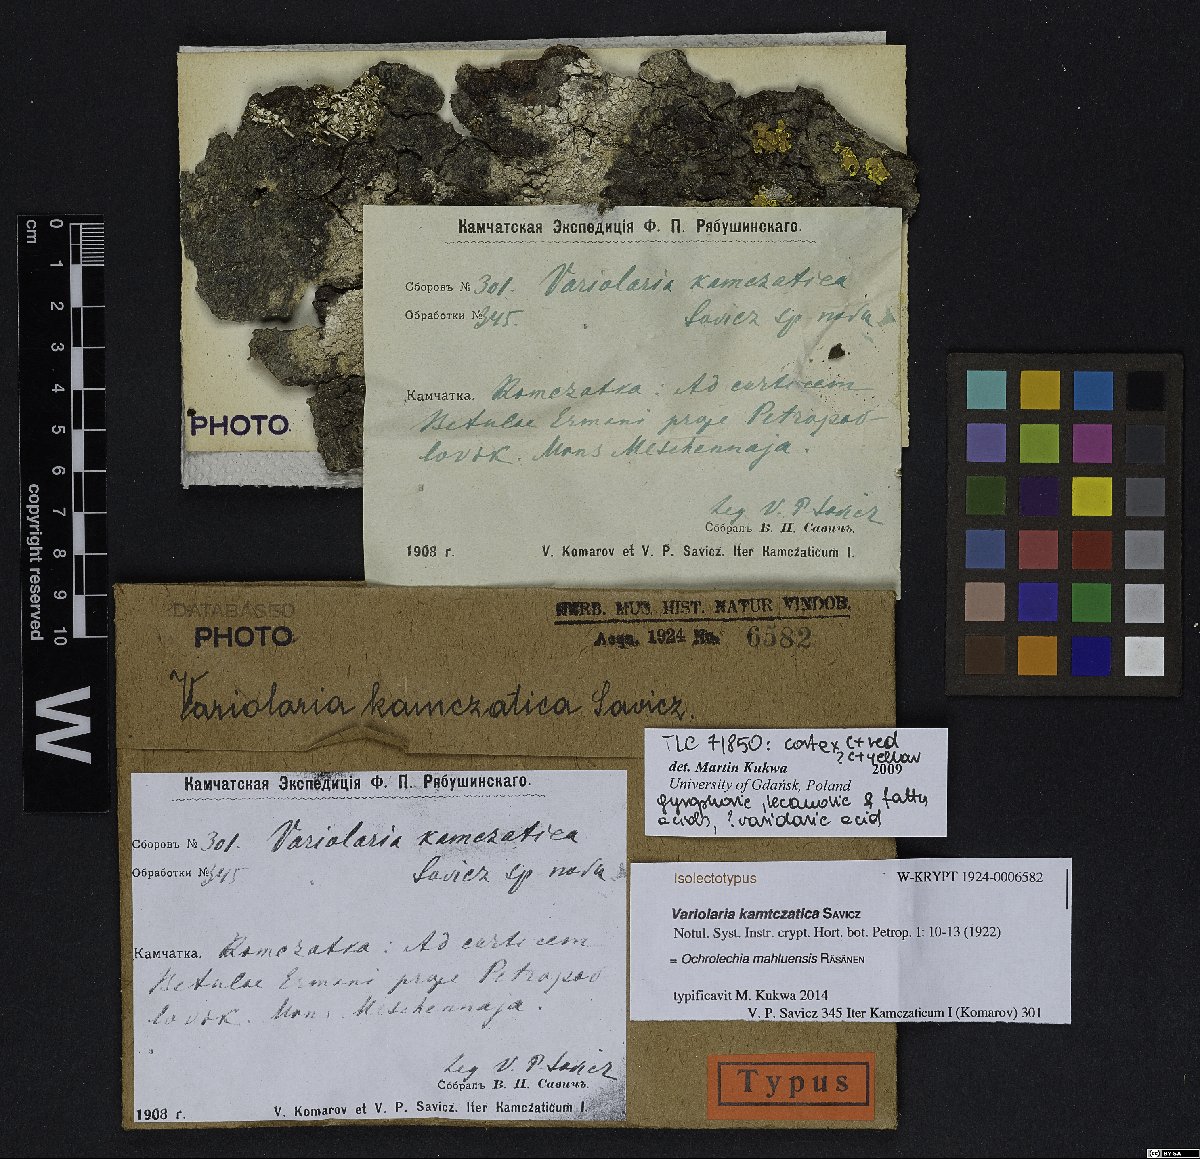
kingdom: Fungi
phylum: Ascomycota
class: Dothideomycetes
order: Capnodiales
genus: Variolaria
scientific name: Variolaria
